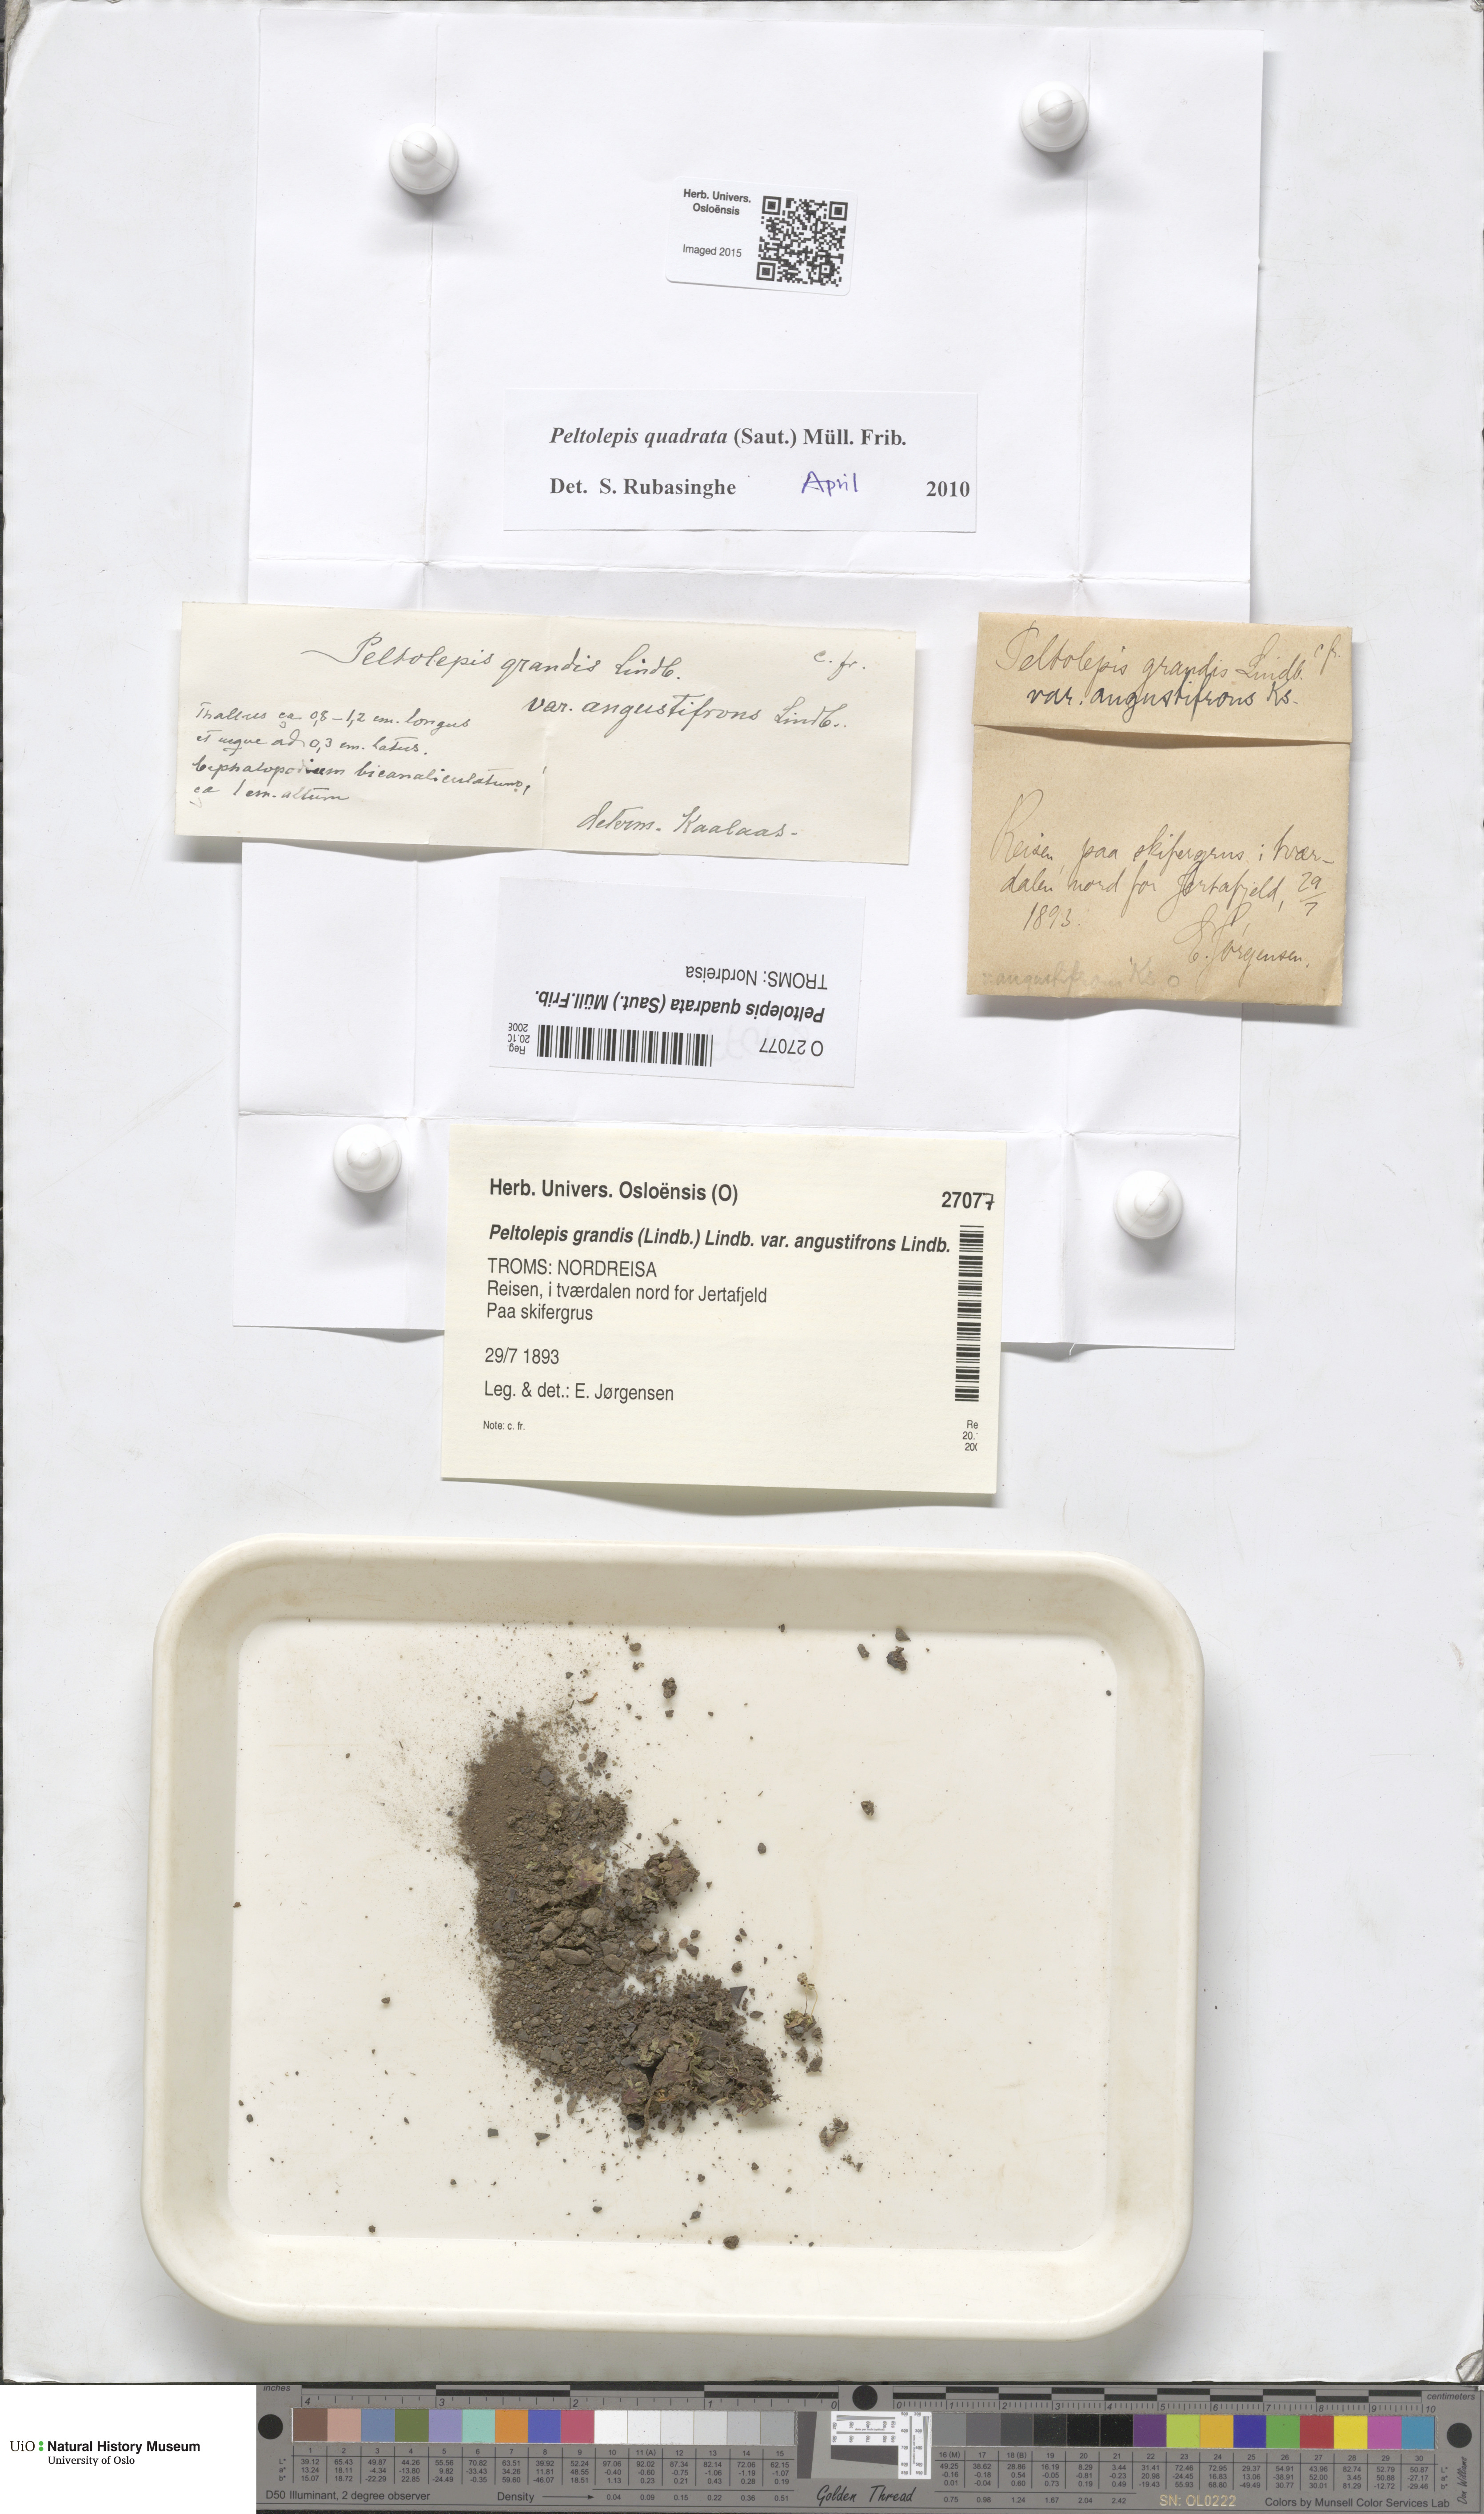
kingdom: Plantae
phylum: Marchantiophyta
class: Marchantiopsida
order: Marchantiales
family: Cleveaceae
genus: Peltolepis
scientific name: Peltolepis quadrata
